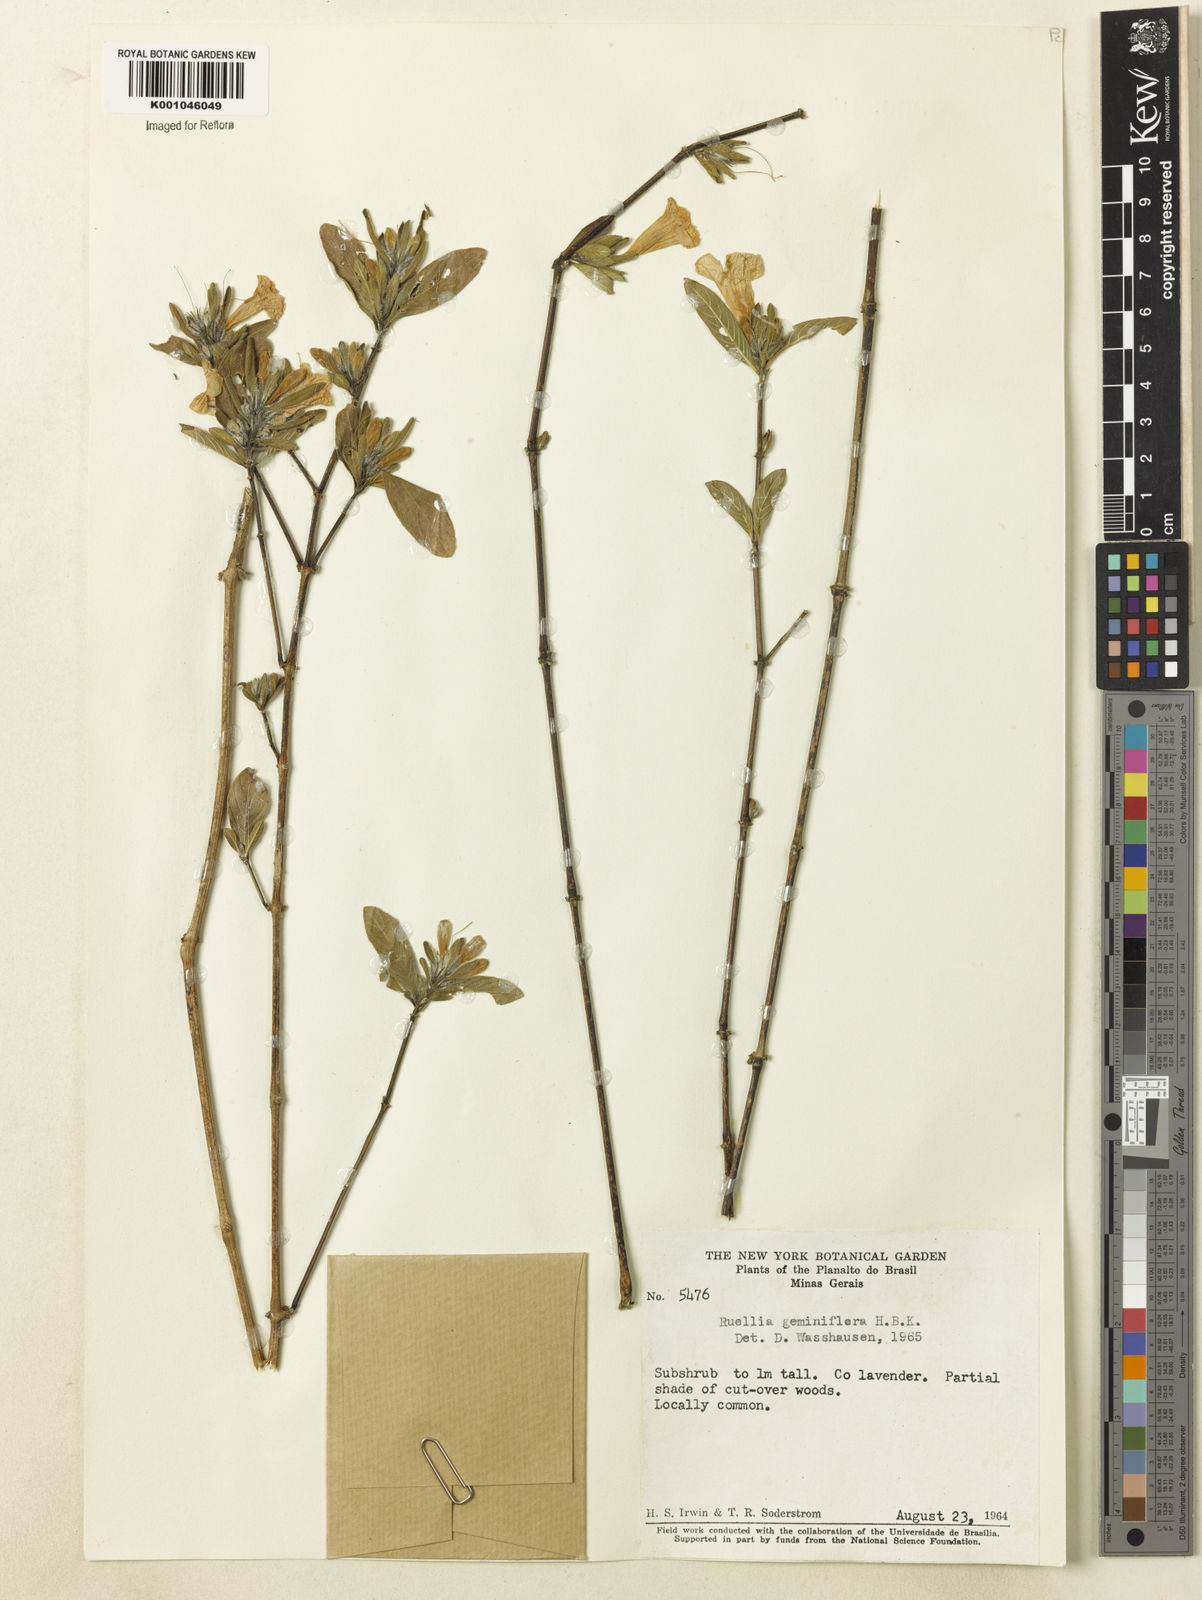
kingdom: Plantae
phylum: Tracheophyta
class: Magnoliopsida
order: Lamiales
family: Acanthaceae
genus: Ruellia
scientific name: Ruellia geminiflora
